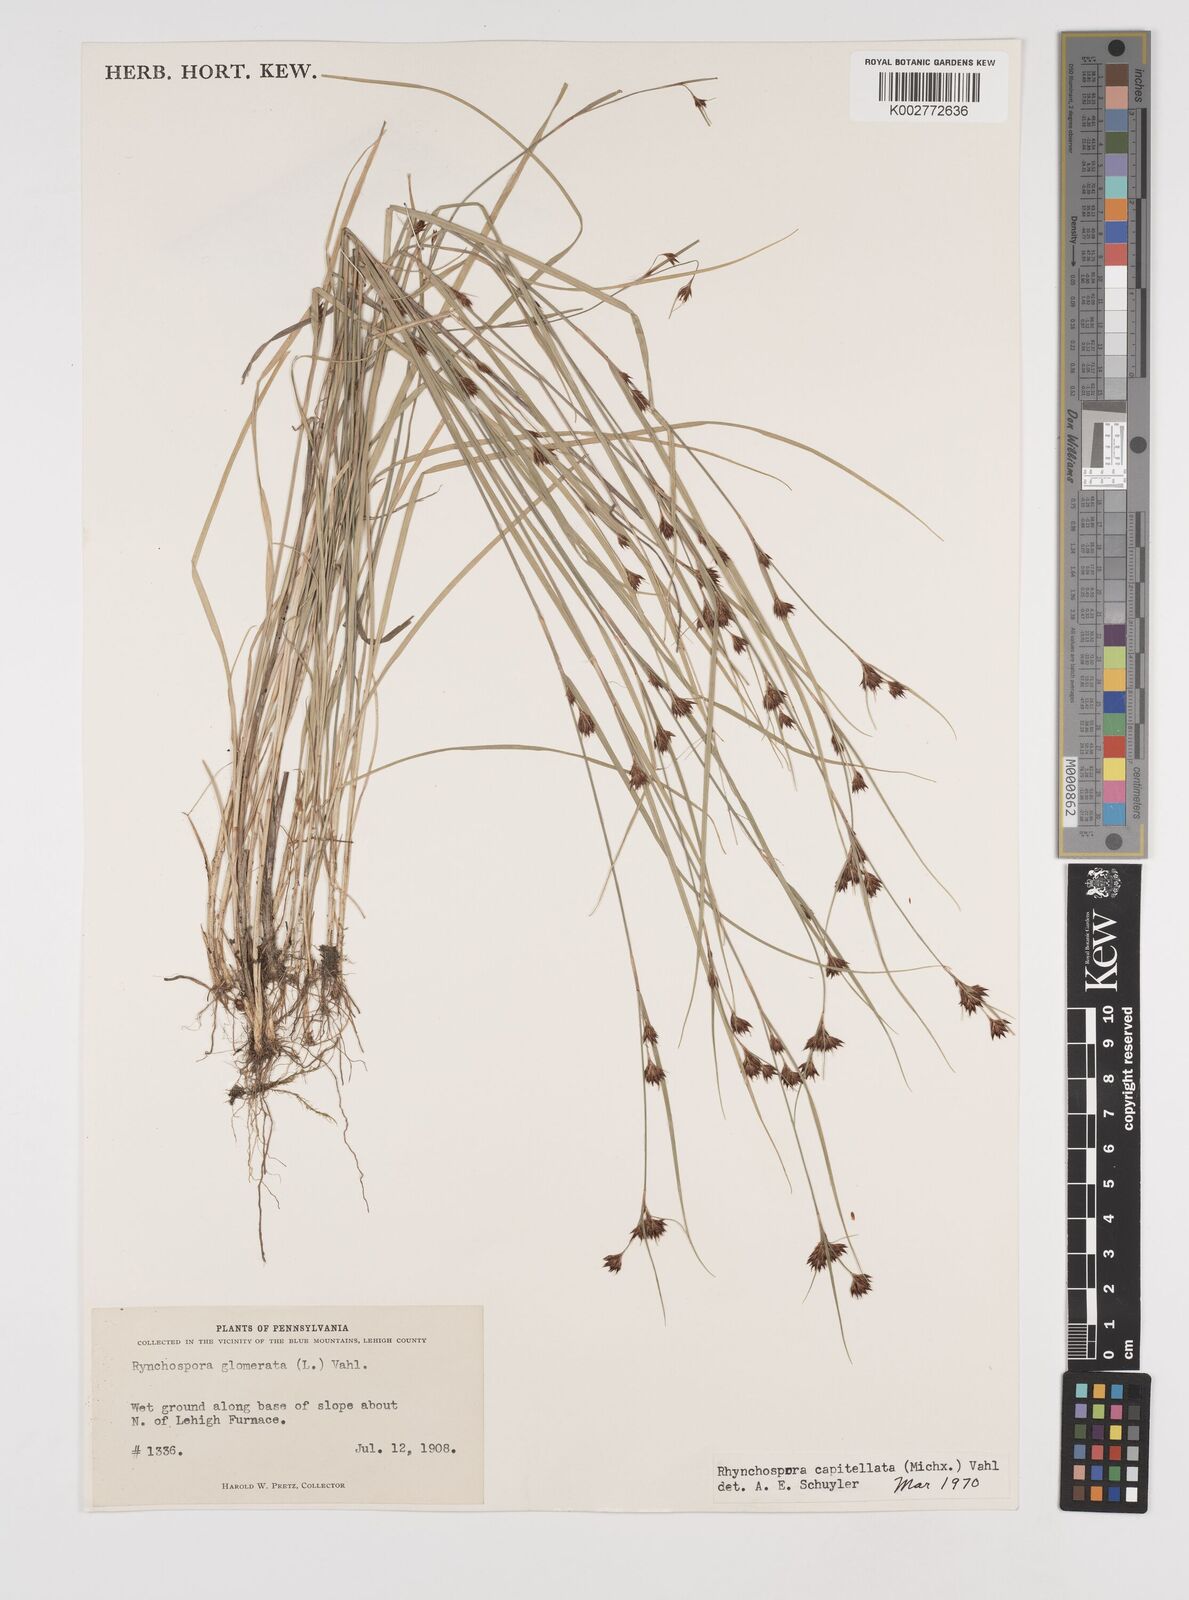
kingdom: Plantae
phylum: Tracheophyta
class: Liliopsida
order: Poales
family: Cyperaceae
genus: Rhynchospora
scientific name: Rhynchospora capitellata
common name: Brownish beaksedge
